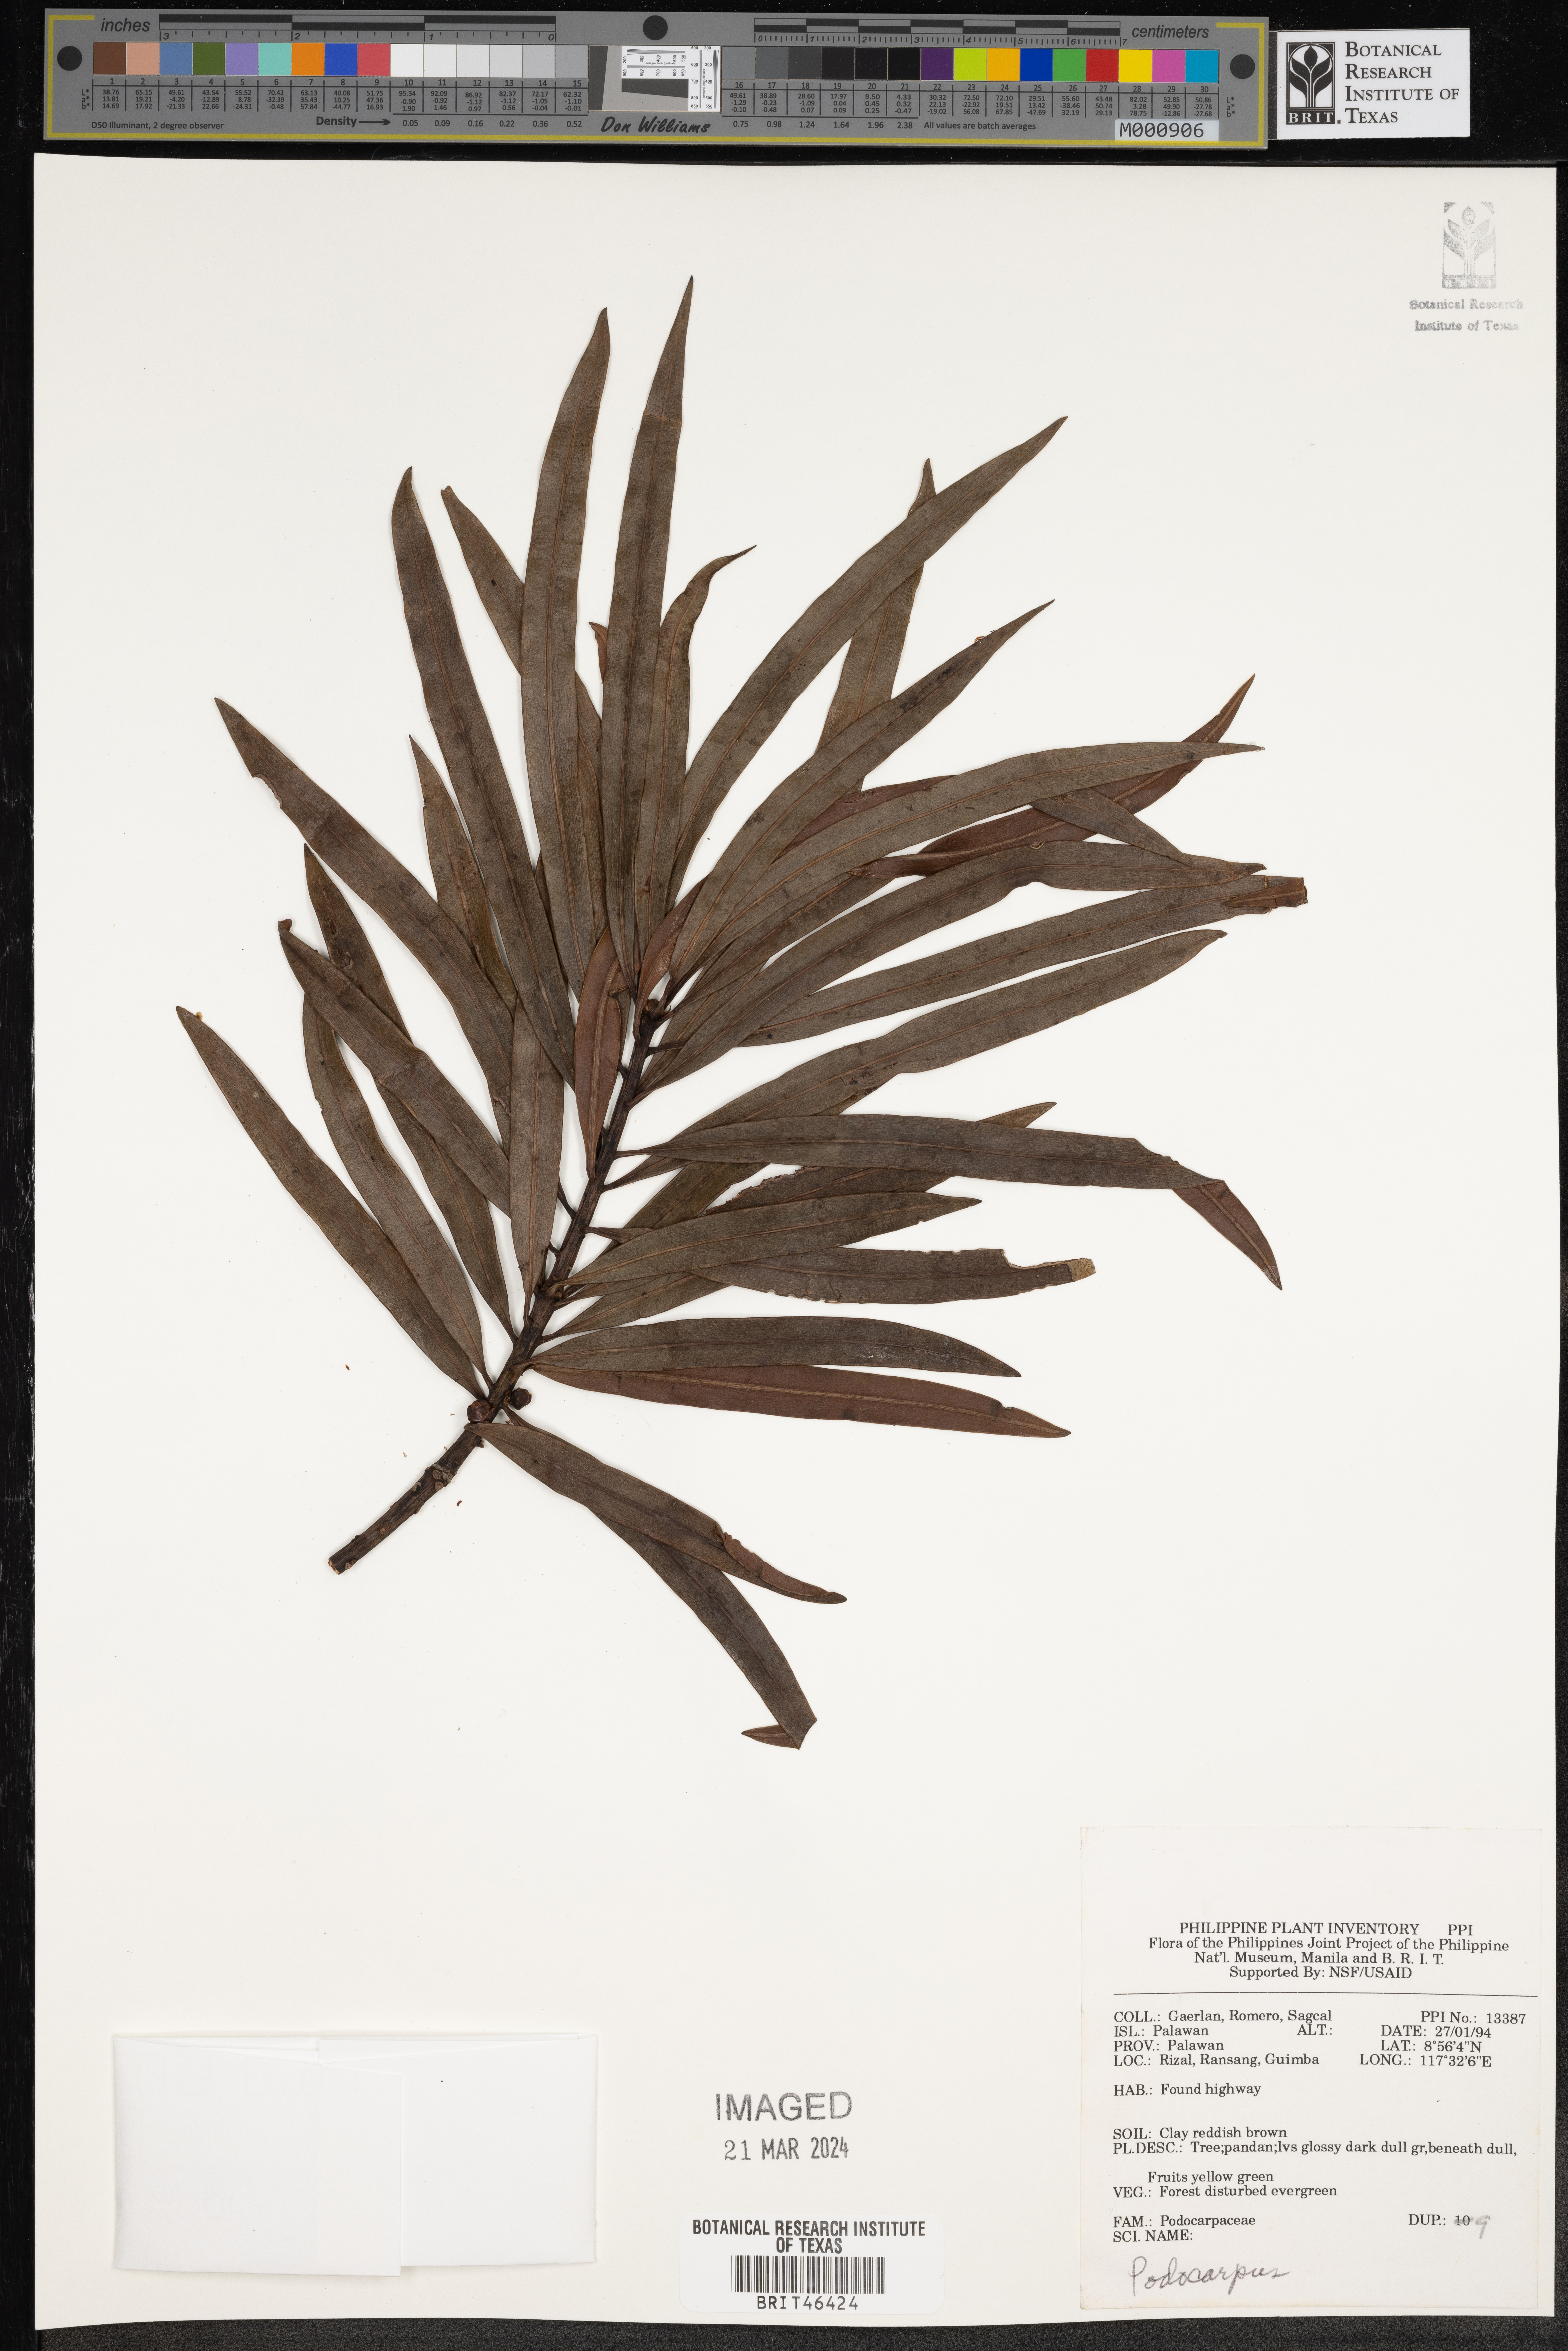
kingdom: Plantae
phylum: Tracheophyta
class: Pinopsida
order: Pinales
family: Podocarpaceae
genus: Podocarpus
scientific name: Podocarpus
